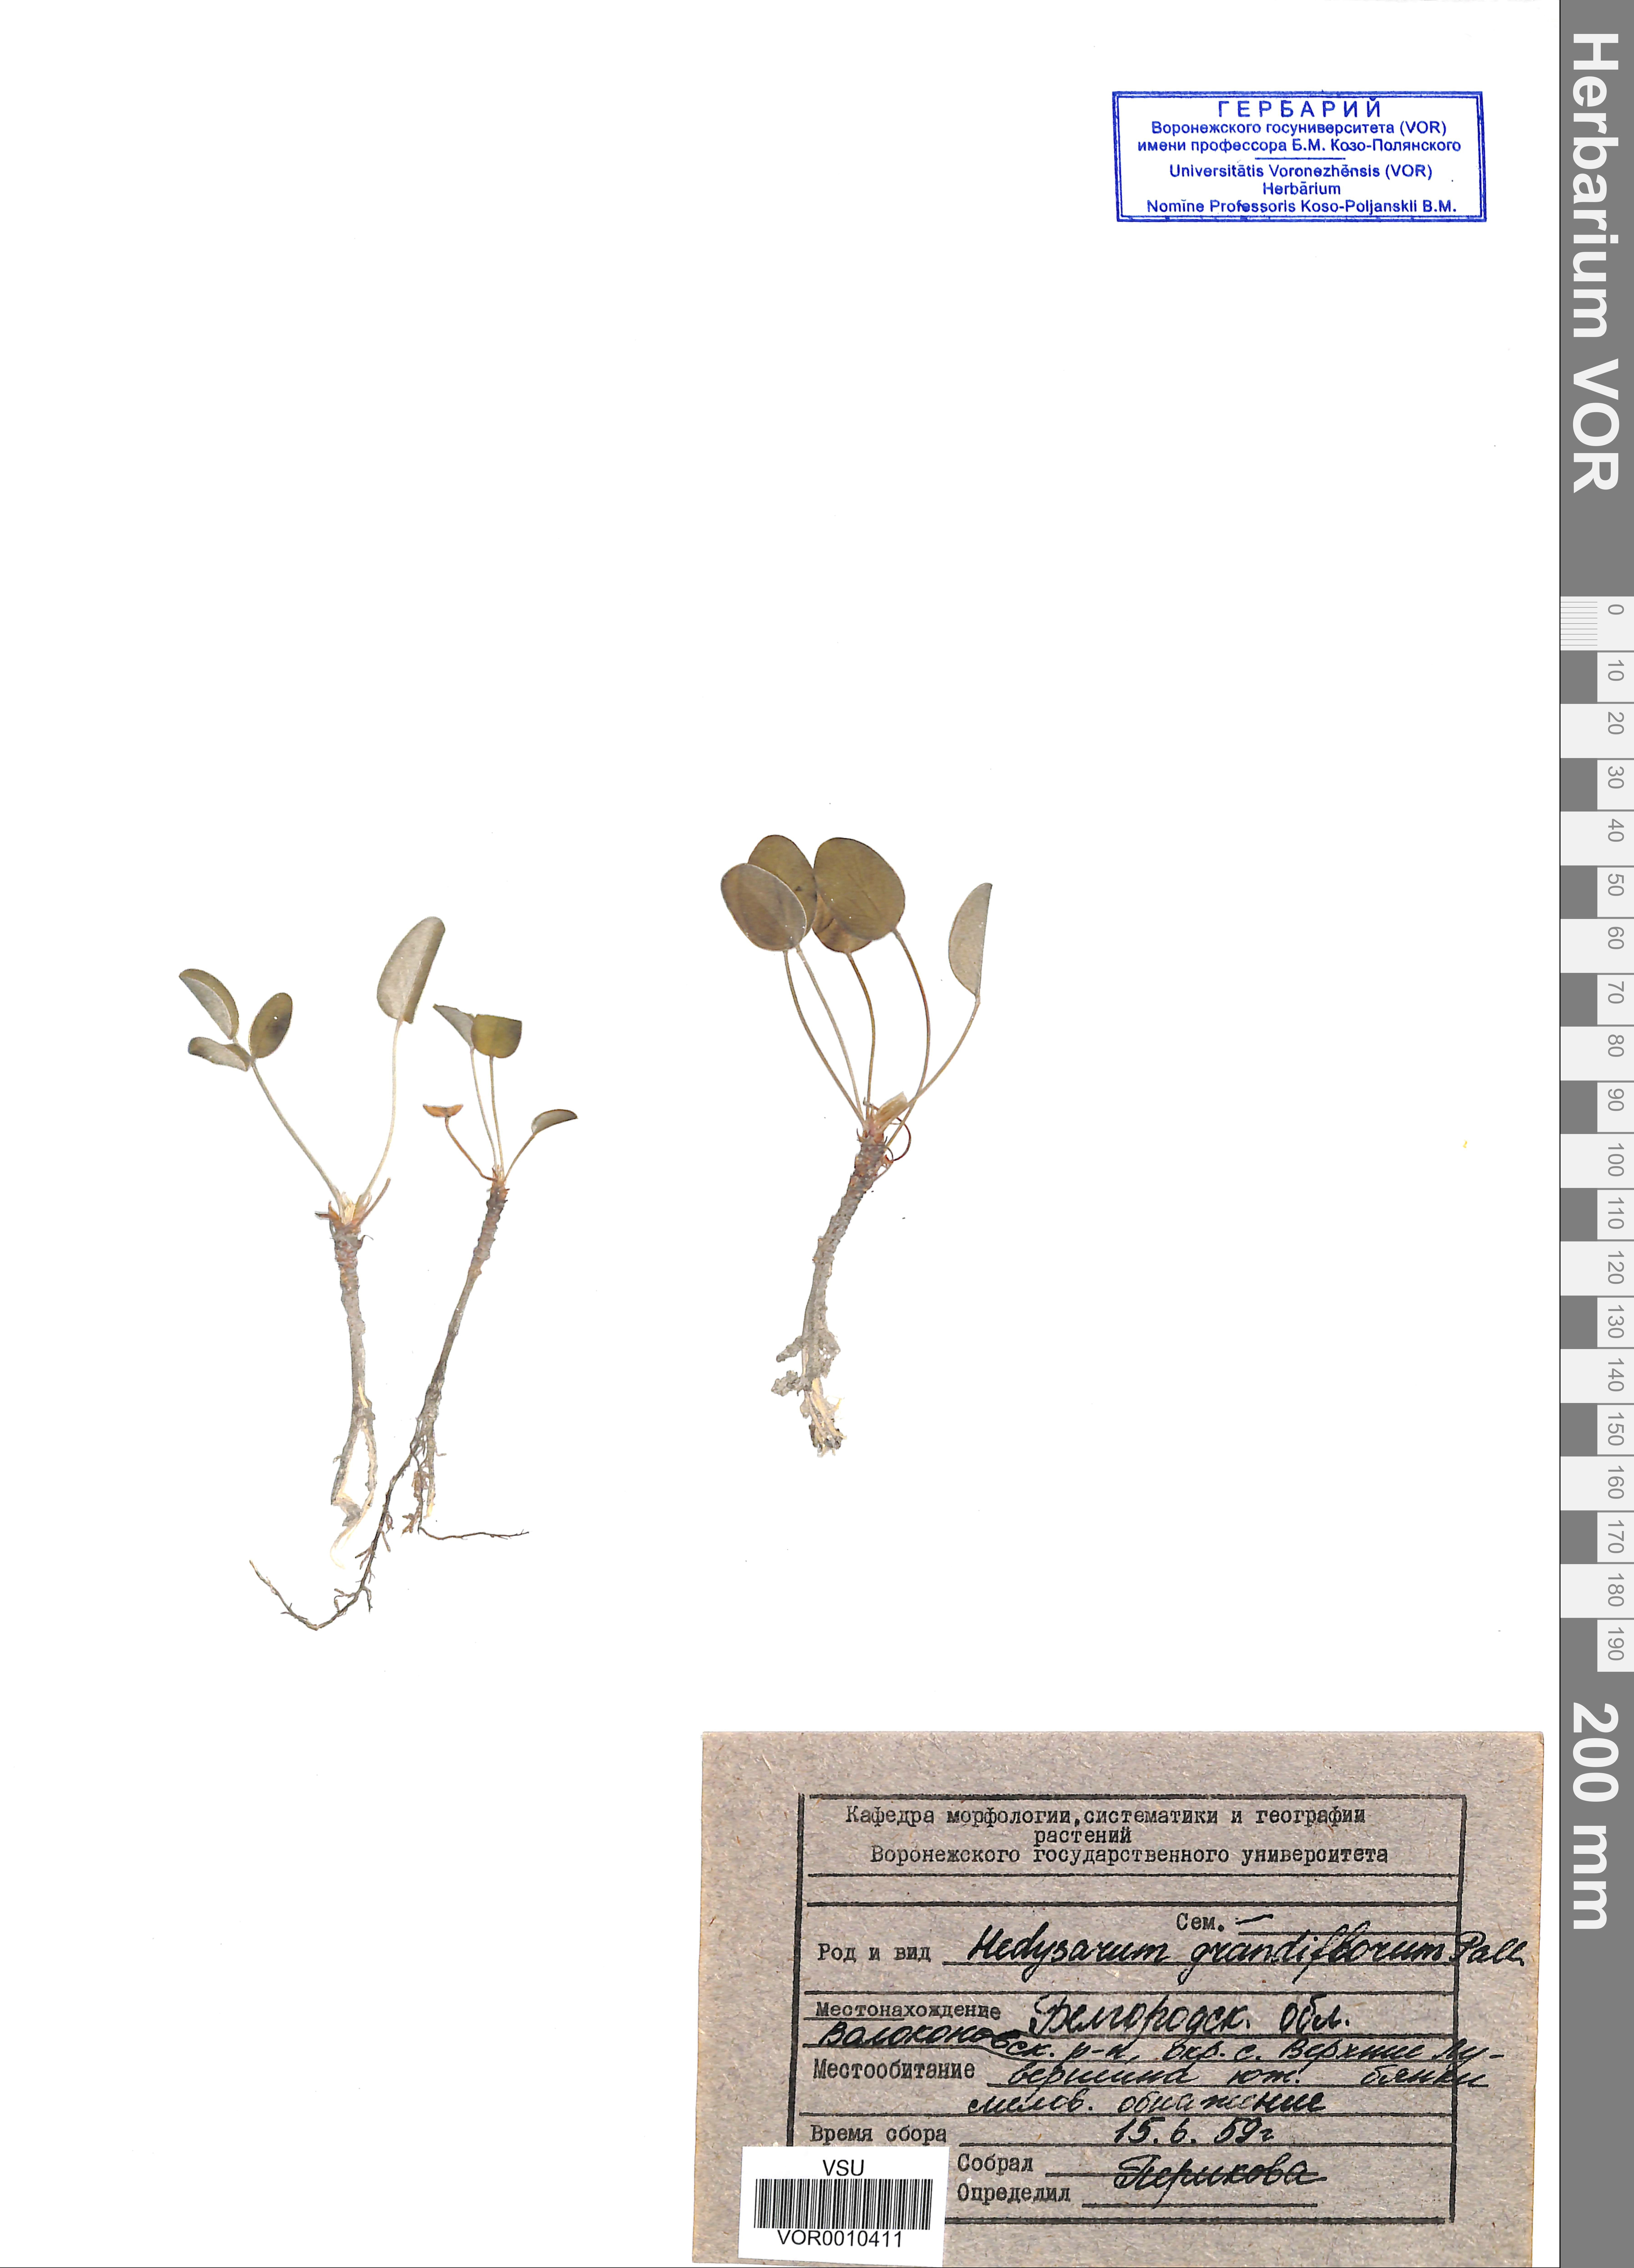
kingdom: Plantae
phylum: Tracheophyta
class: Magnoliopsida
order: Fabales
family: Fabaceae
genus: Hedysarum
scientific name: Hedysarum grandiflorum
